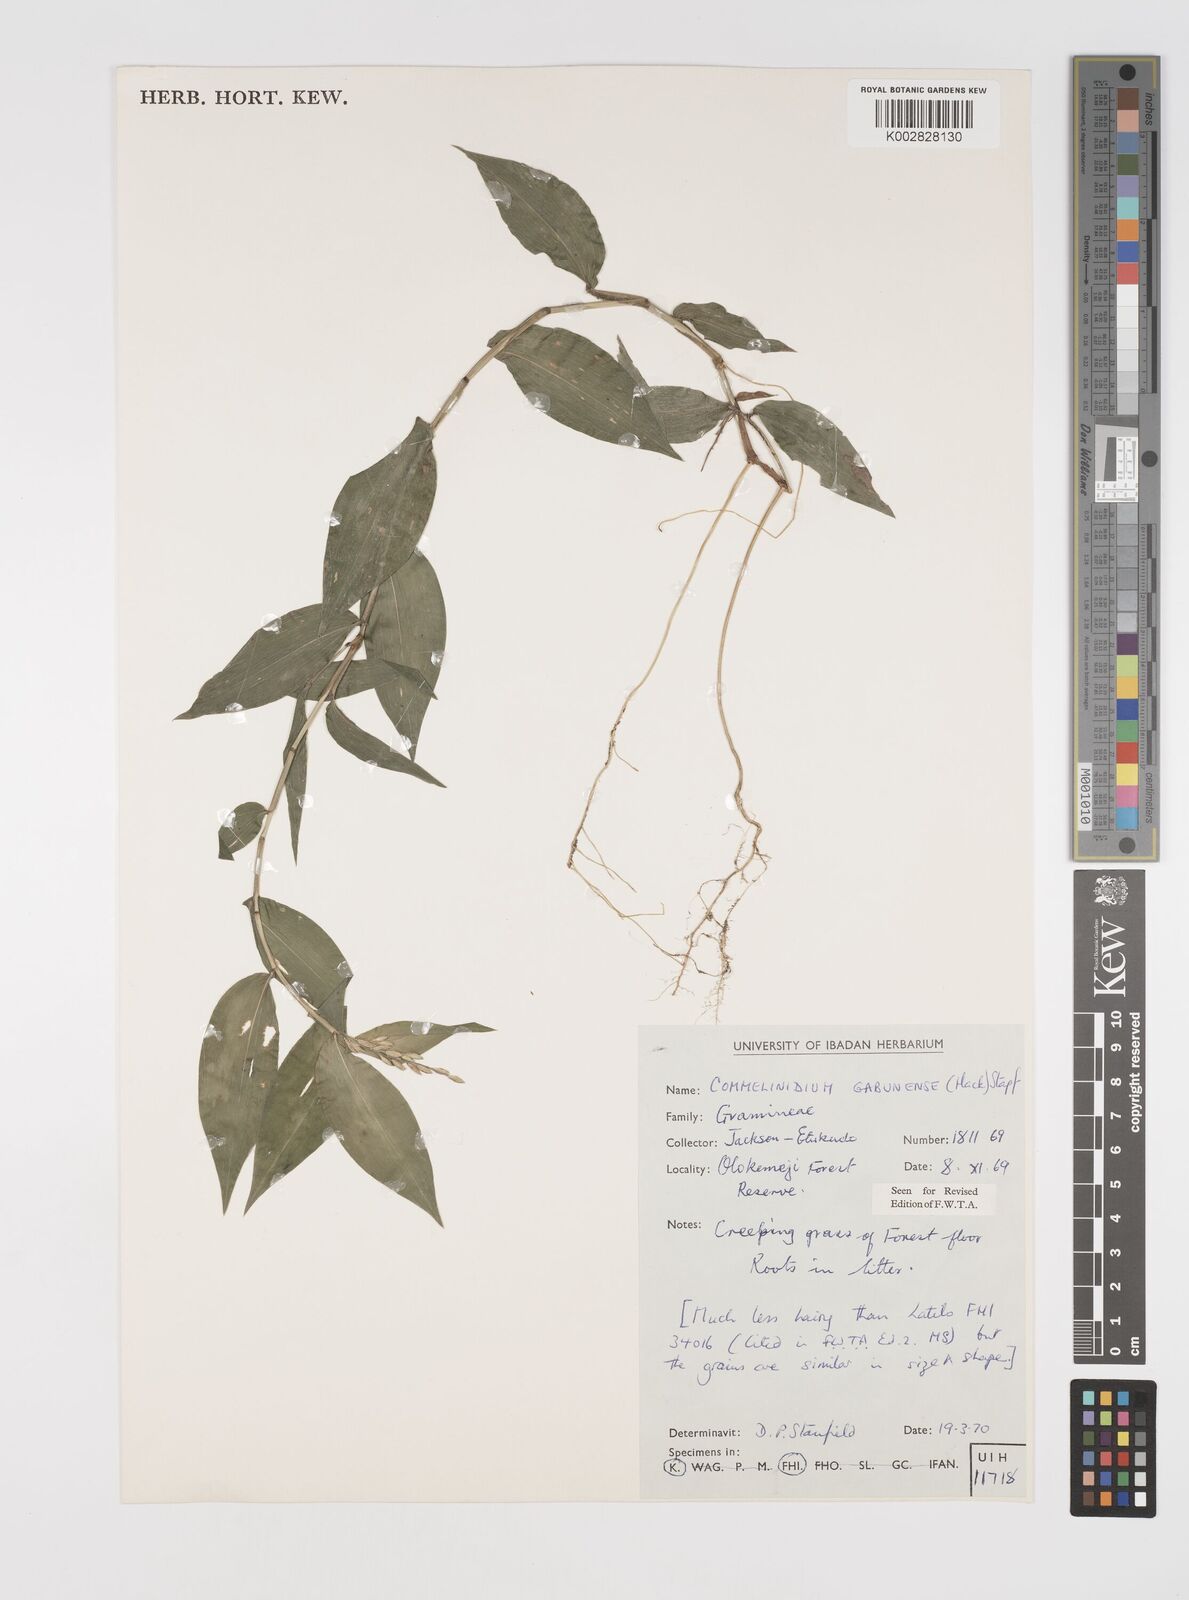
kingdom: Plantae
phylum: Tracheophyta
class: Liliopsida
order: Poales
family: Poaceae
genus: Acroceras
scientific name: Acroceras gabunense
